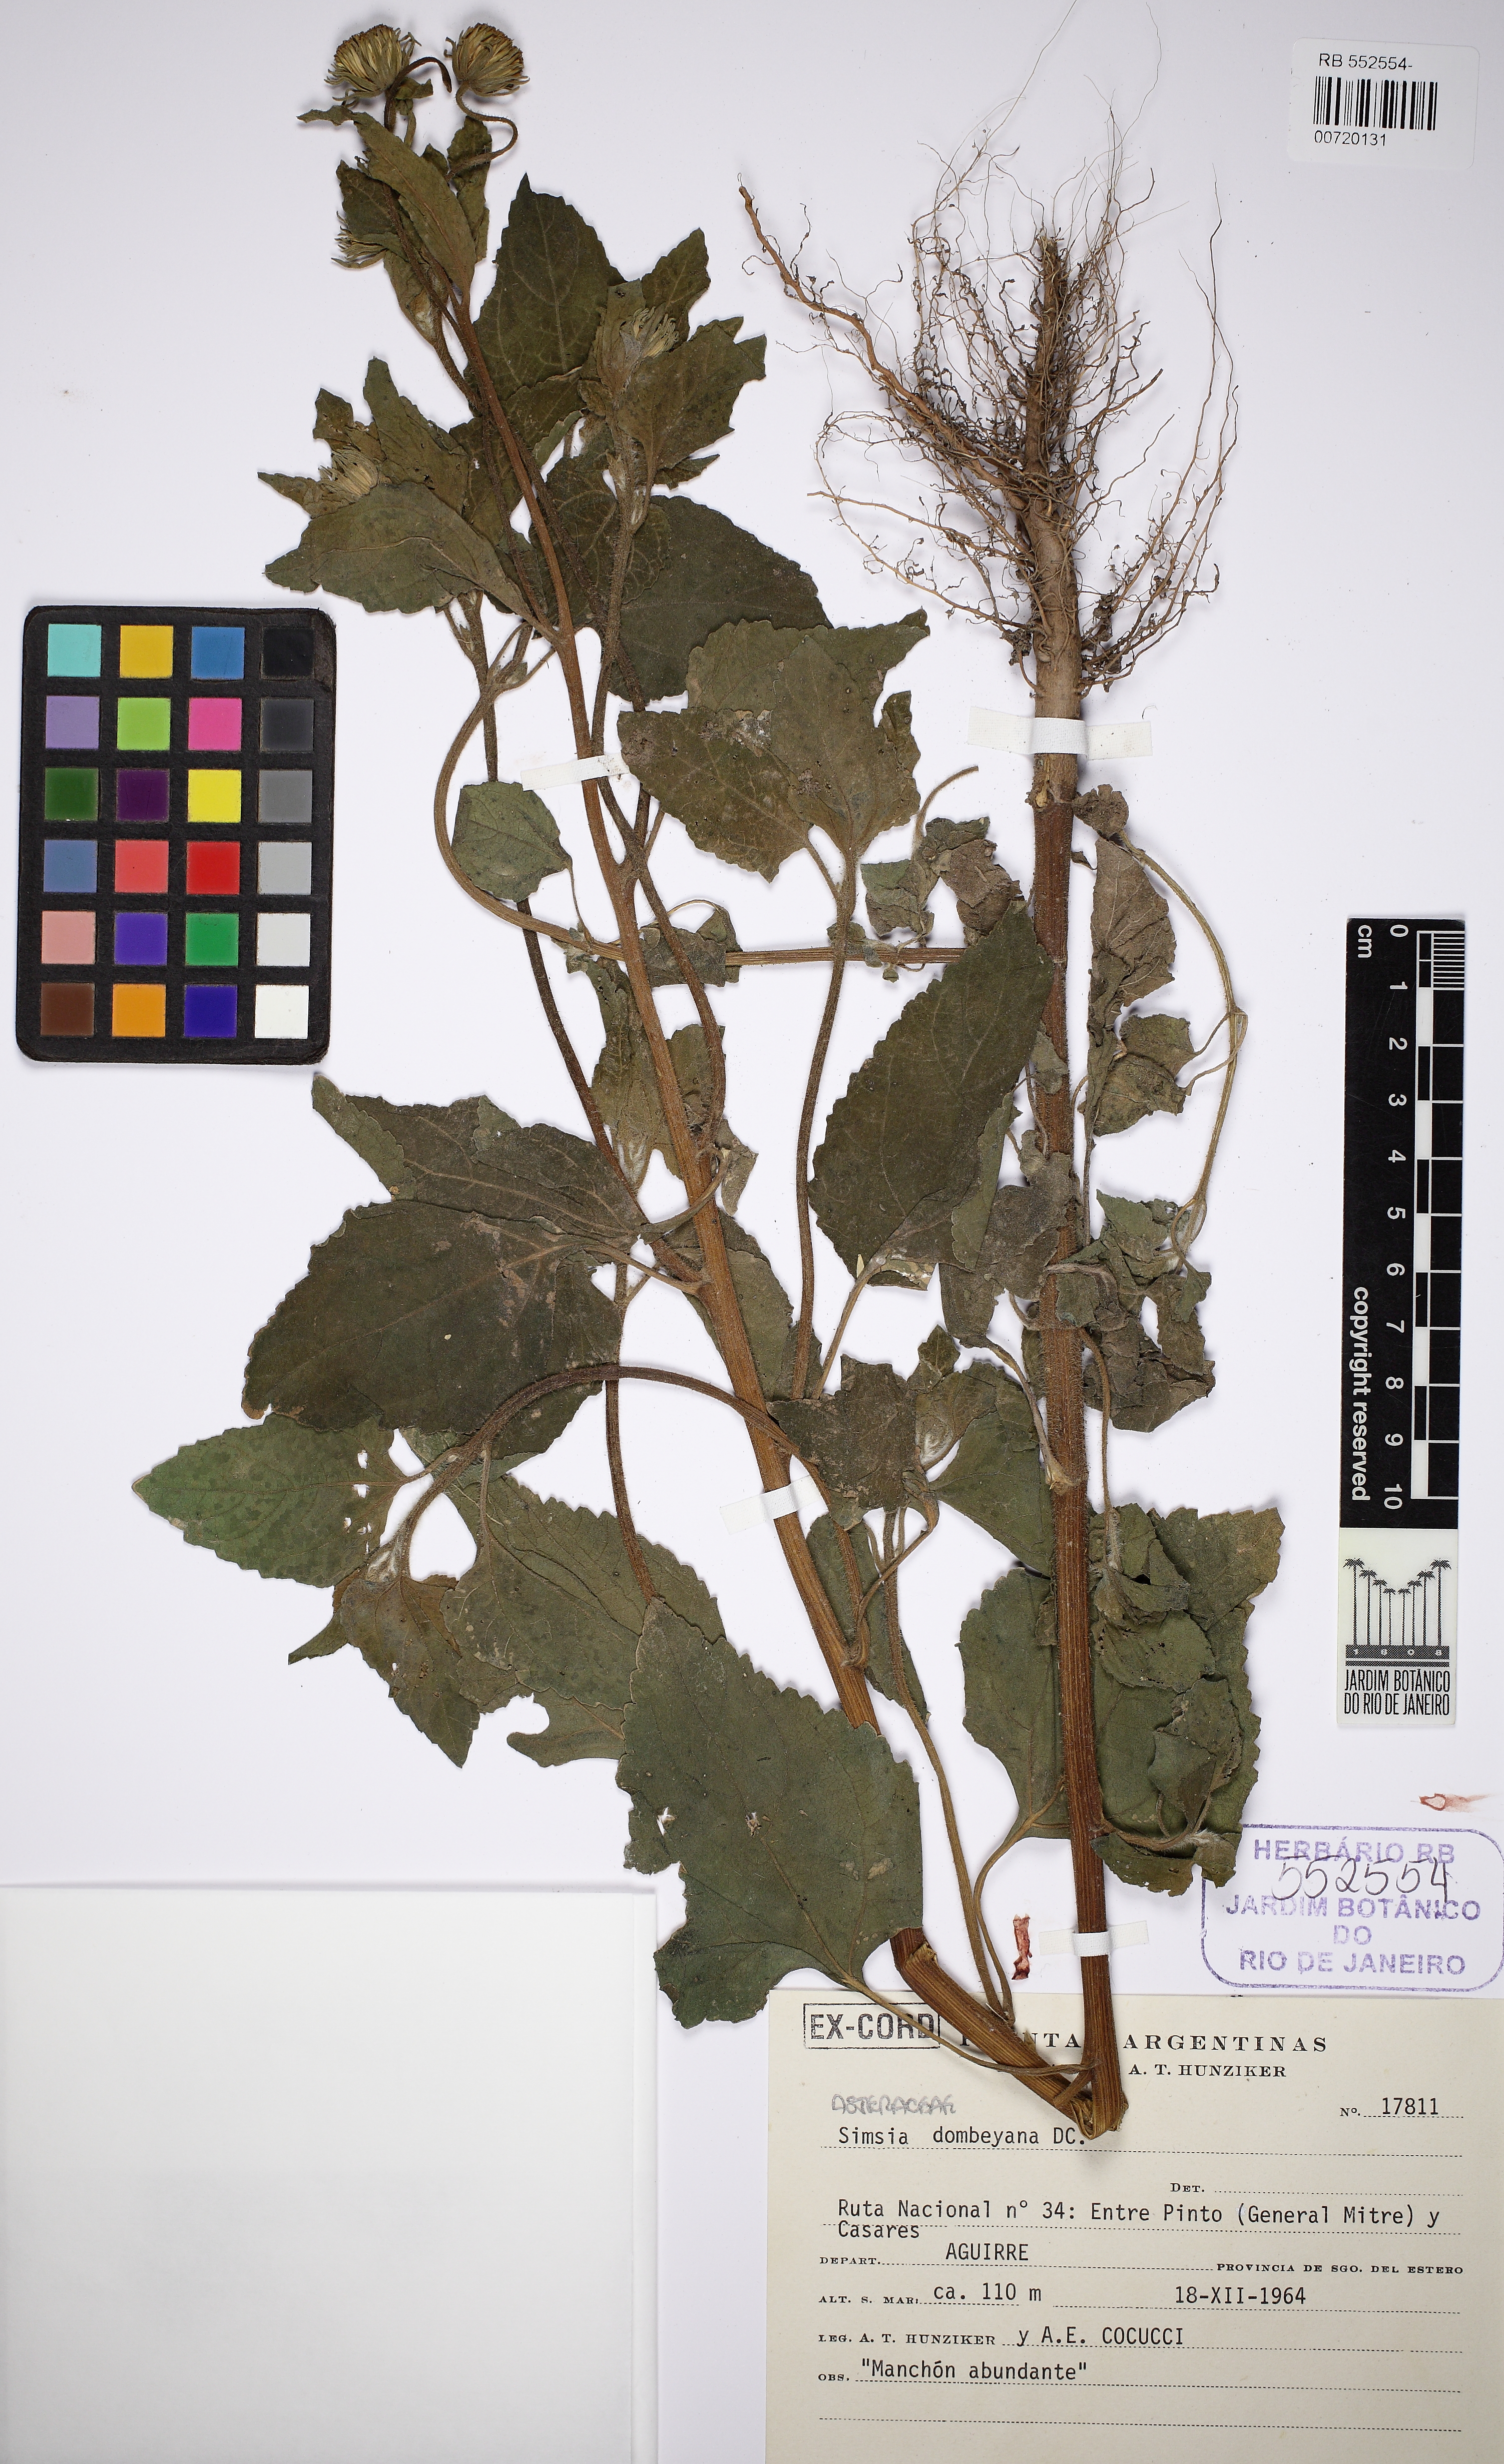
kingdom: Plantae
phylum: Tracheophyta
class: Magnoliopsida
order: Asterales
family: Asteraceae
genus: Simsia
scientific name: Simsia dombeyana
